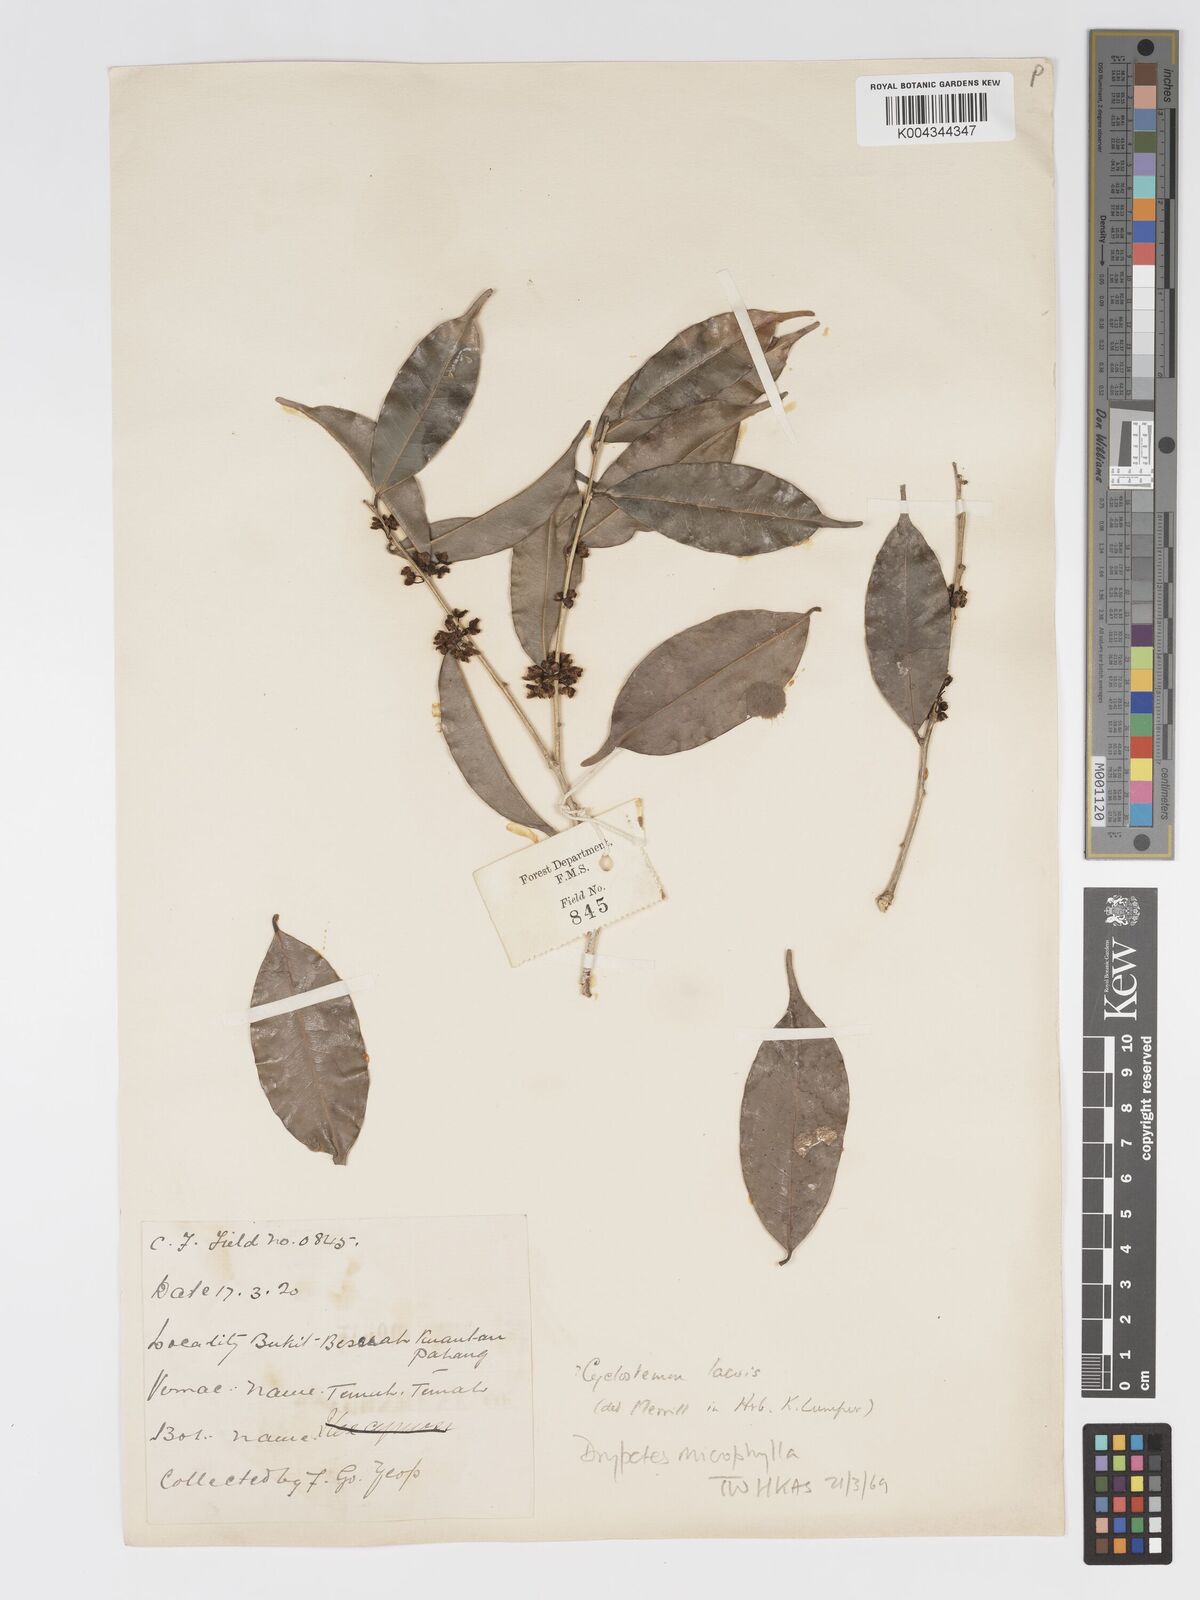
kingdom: Plantae
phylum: Tracheophyta
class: Magnoliopsida
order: Malpighiales
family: Putranjivaceae
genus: Drypetes
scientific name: Drypetes oxyodonta
